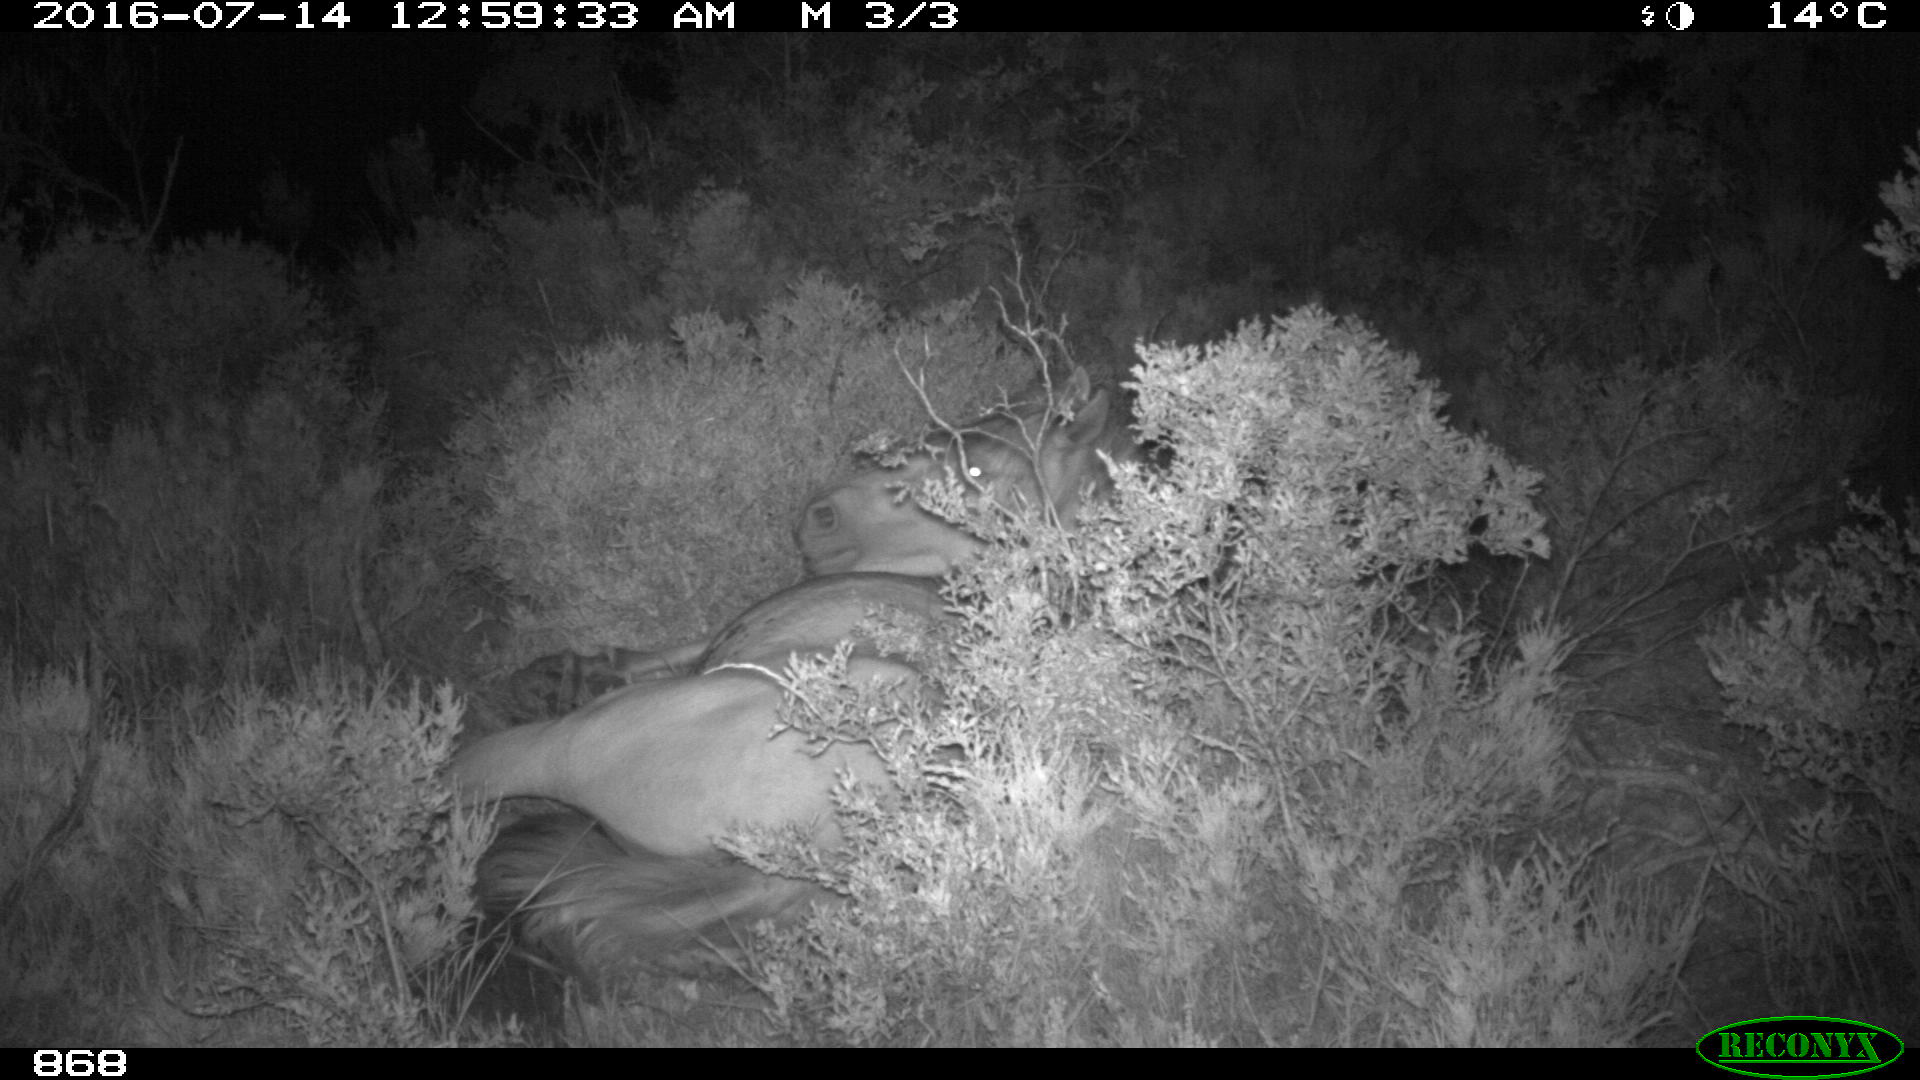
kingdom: Animalia
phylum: Chordata
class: Mammalia
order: Perissodactyla
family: Equidae
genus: Equus
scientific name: Equus caballus
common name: Horse
